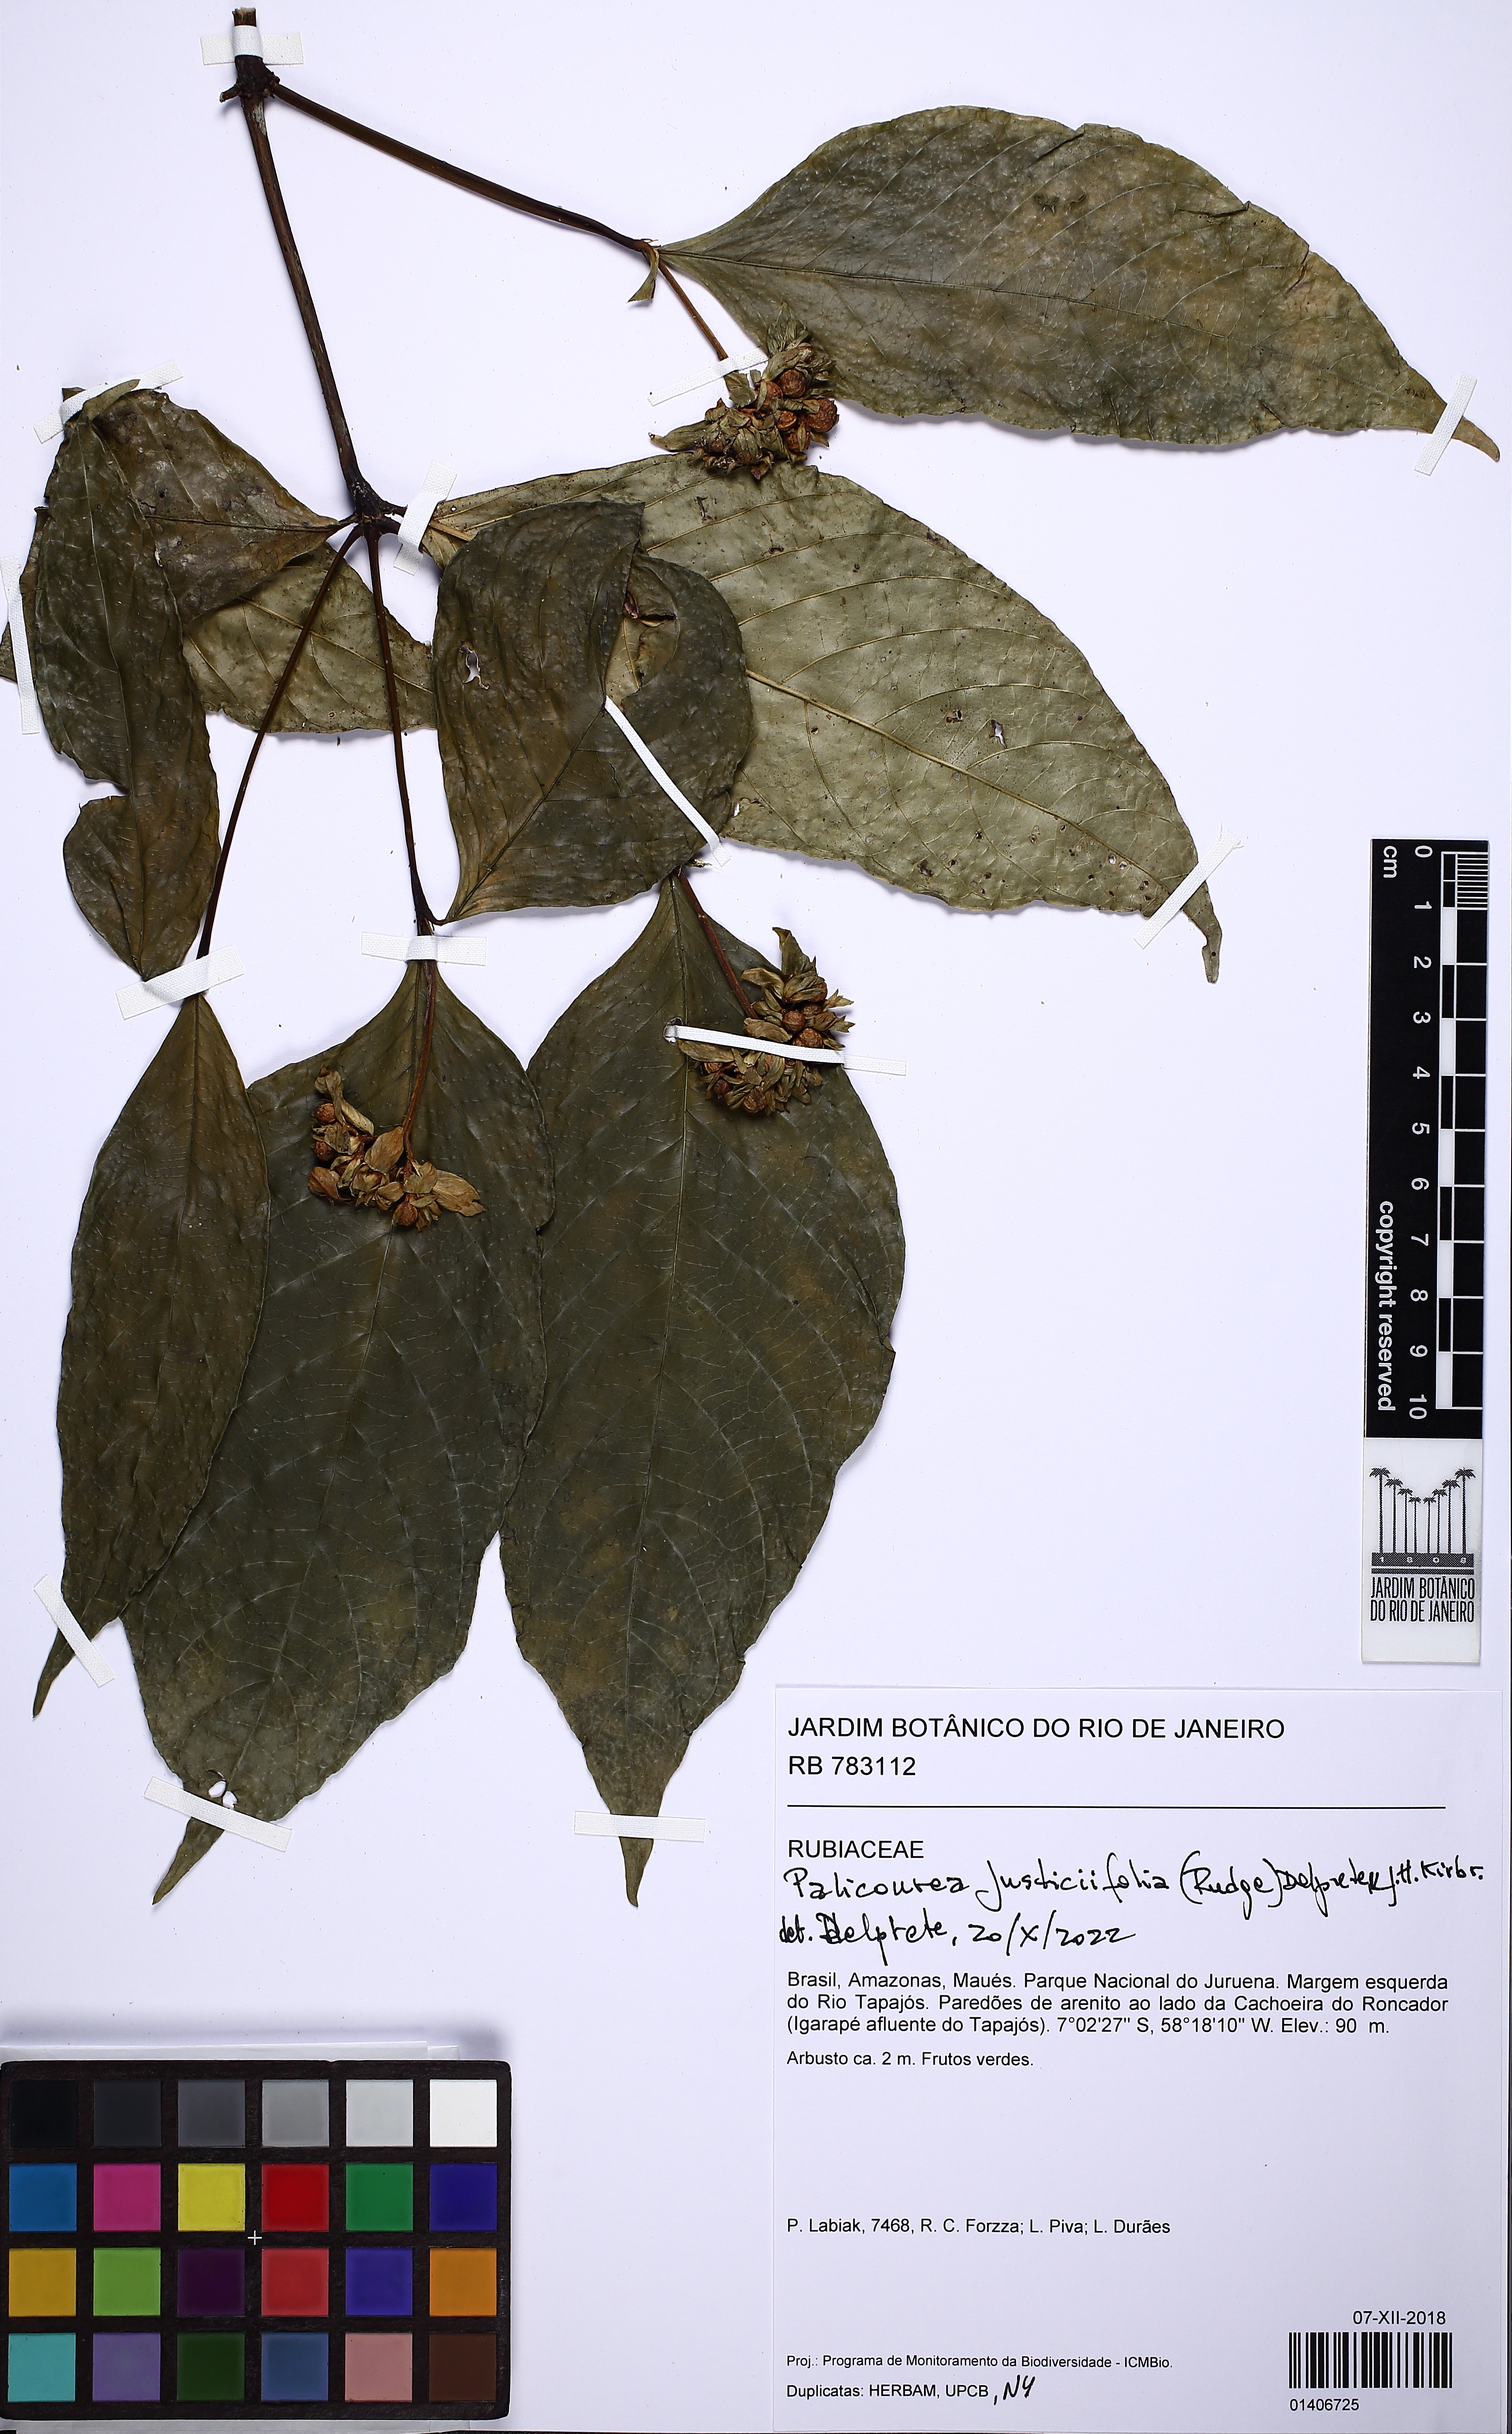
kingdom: Plantae
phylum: Tracheophyta
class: Magnoliopsida
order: Gentianales
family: Rubiaceae
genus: Palicourea
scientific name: Palicourea justiciifolia
